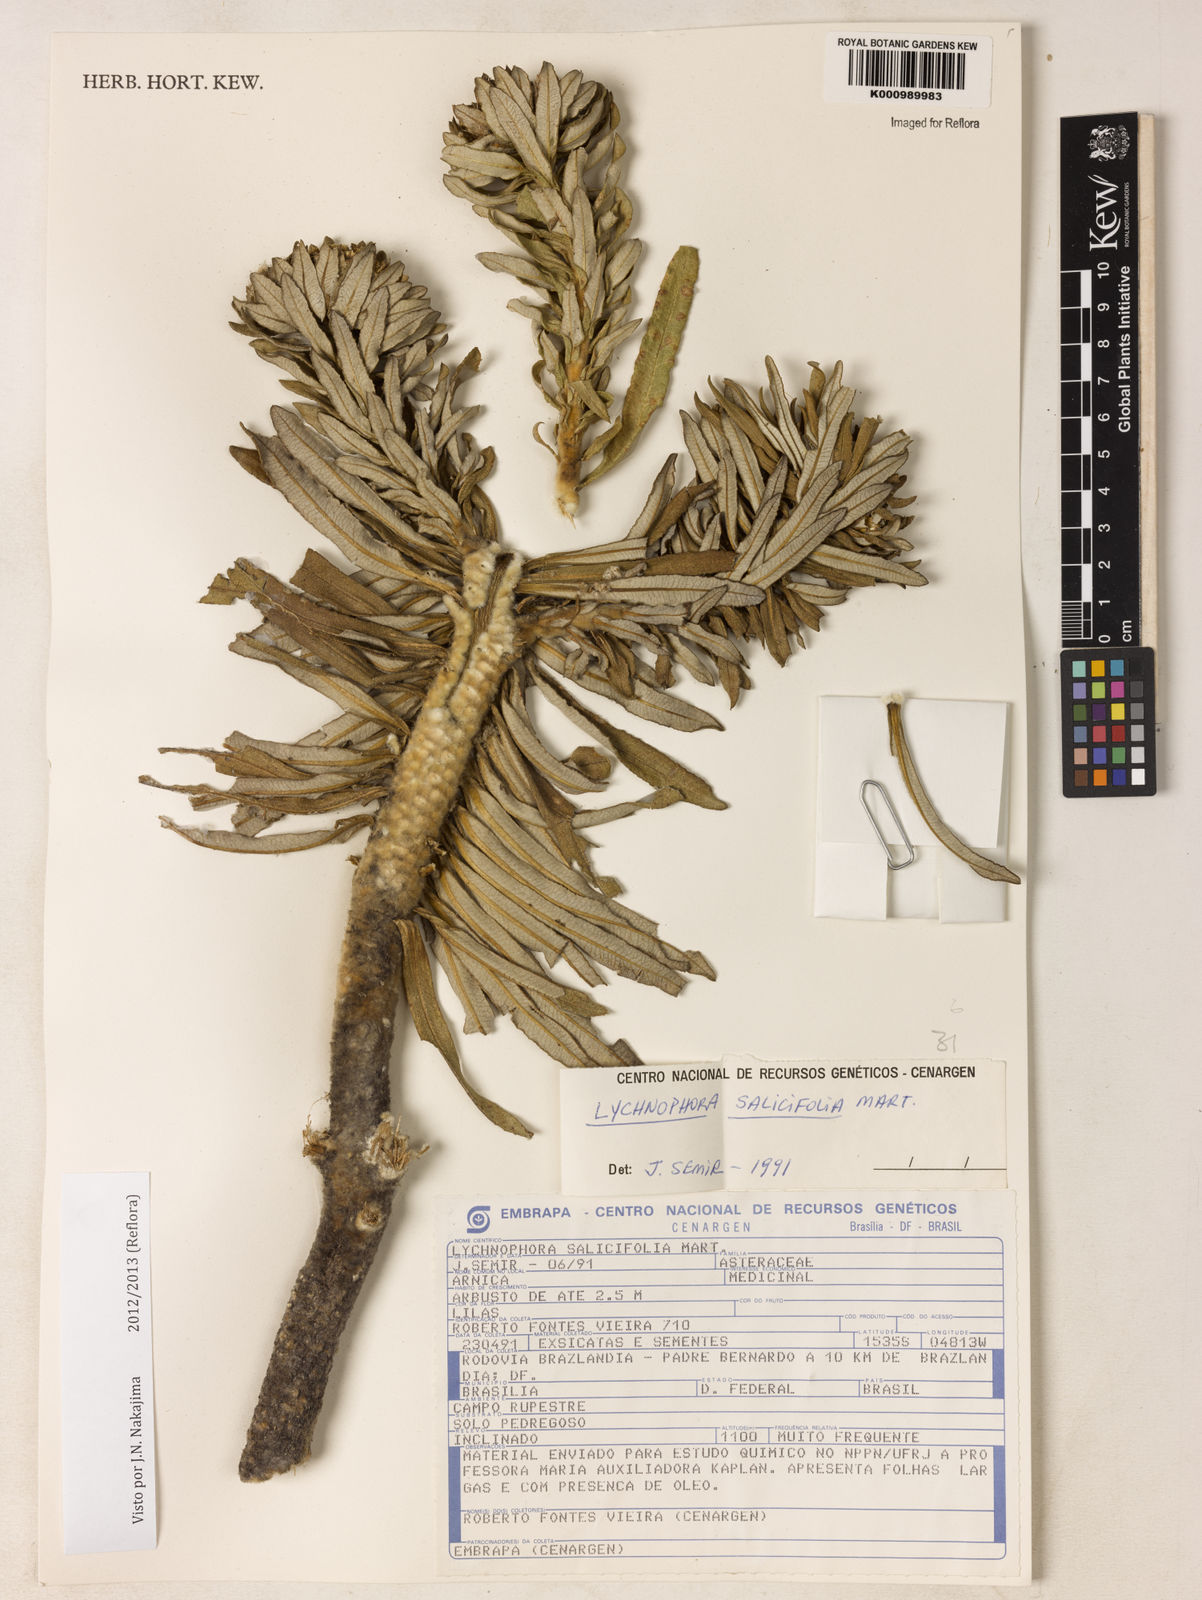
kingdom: Plantae
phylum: Tracheophyta
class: Magnoliopsida
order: Asterales
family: Asteraceae
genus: Lychnophora
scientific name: Lychnophora salicifolia
